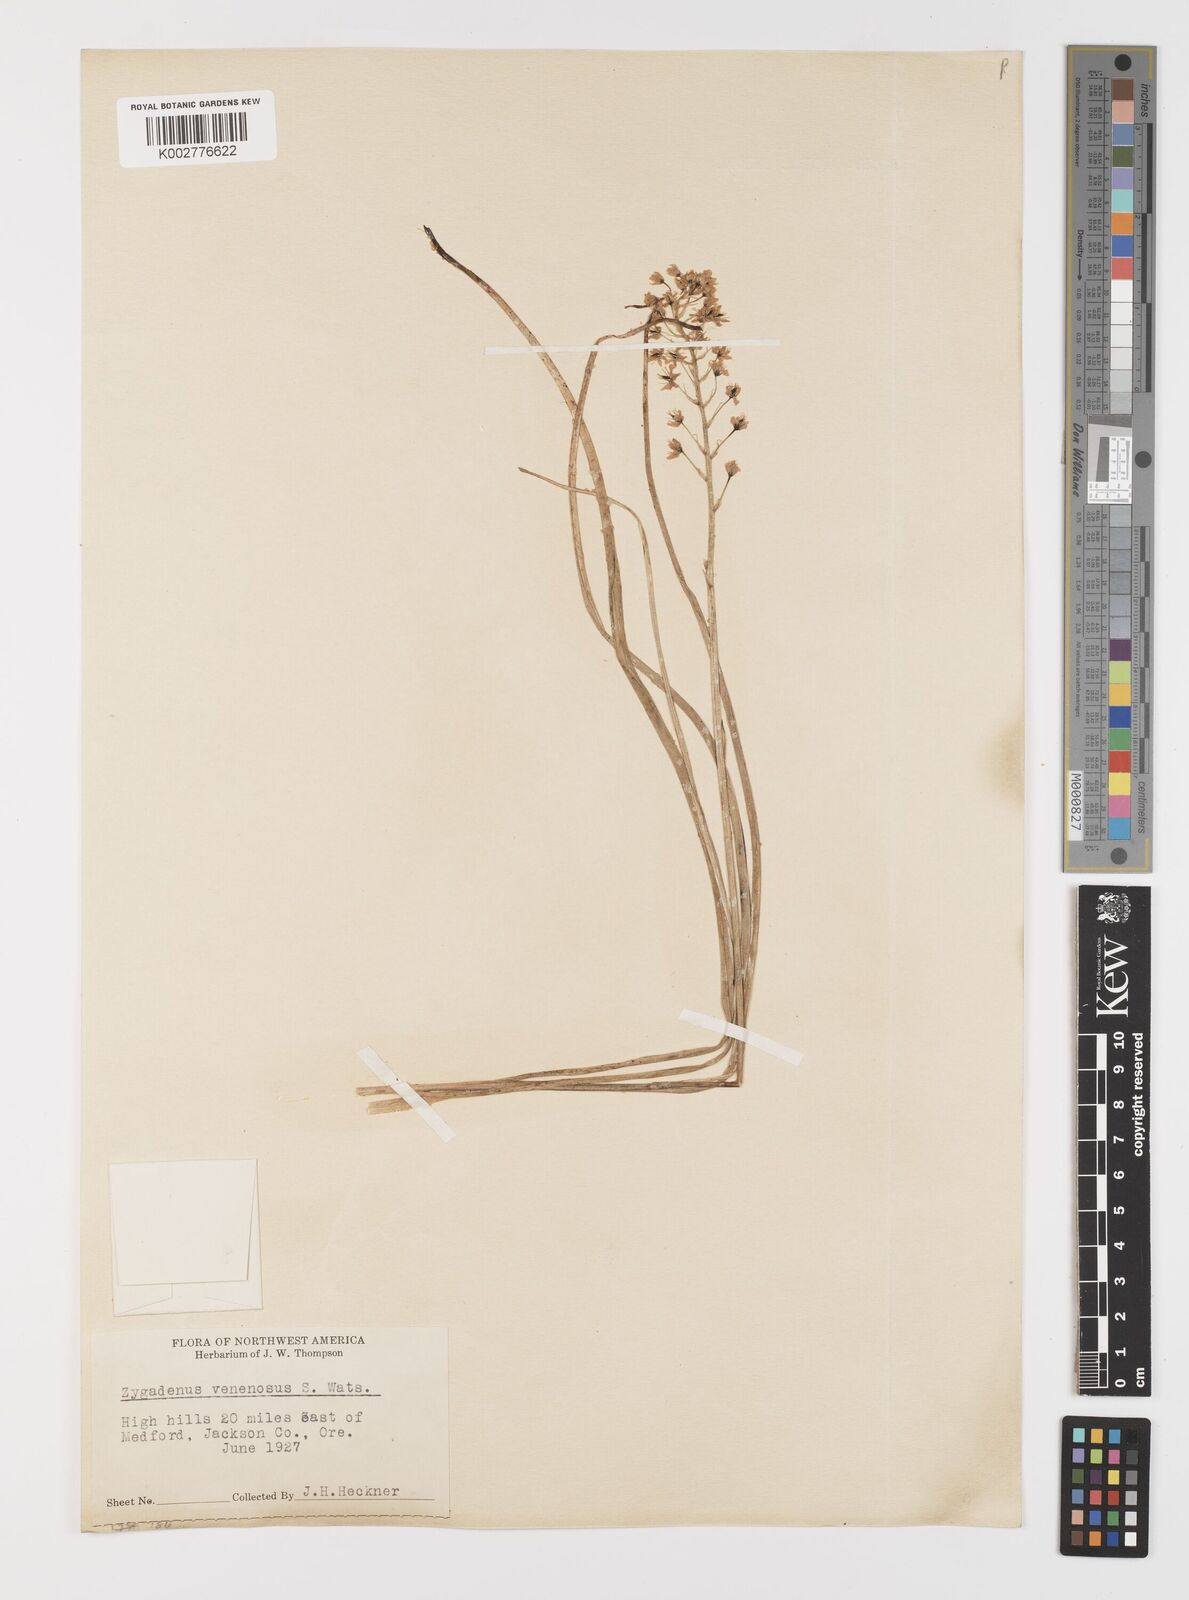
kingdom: Plantae
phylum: Tracheophyta
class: Liliopsida
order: Liliales
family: Melanthiaceae
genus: Toxicoscordion
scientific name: Toxicoscordion venenosum
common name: Meadow death camas
